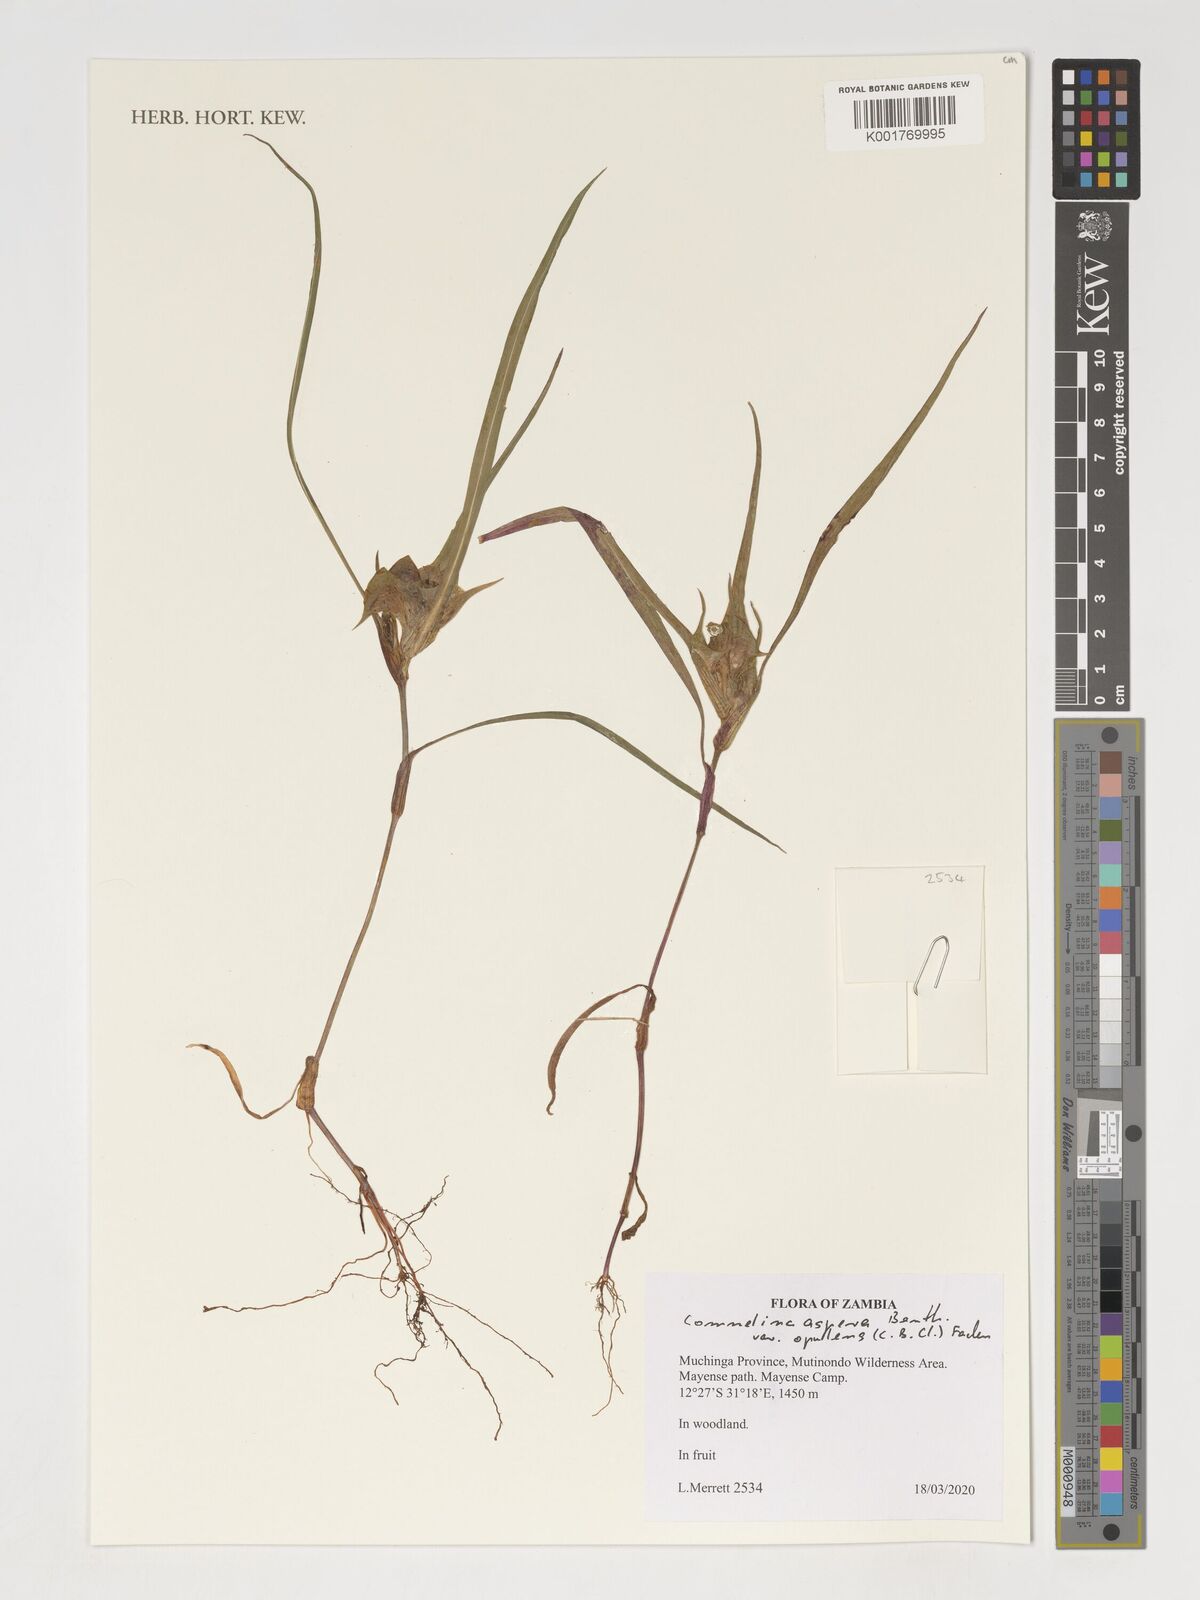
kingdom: Plantae
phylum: Tracheophyta
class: Liliopsida
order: Commelinales
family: Commelinaceae
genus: Commelina
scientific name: Commelina aspera
